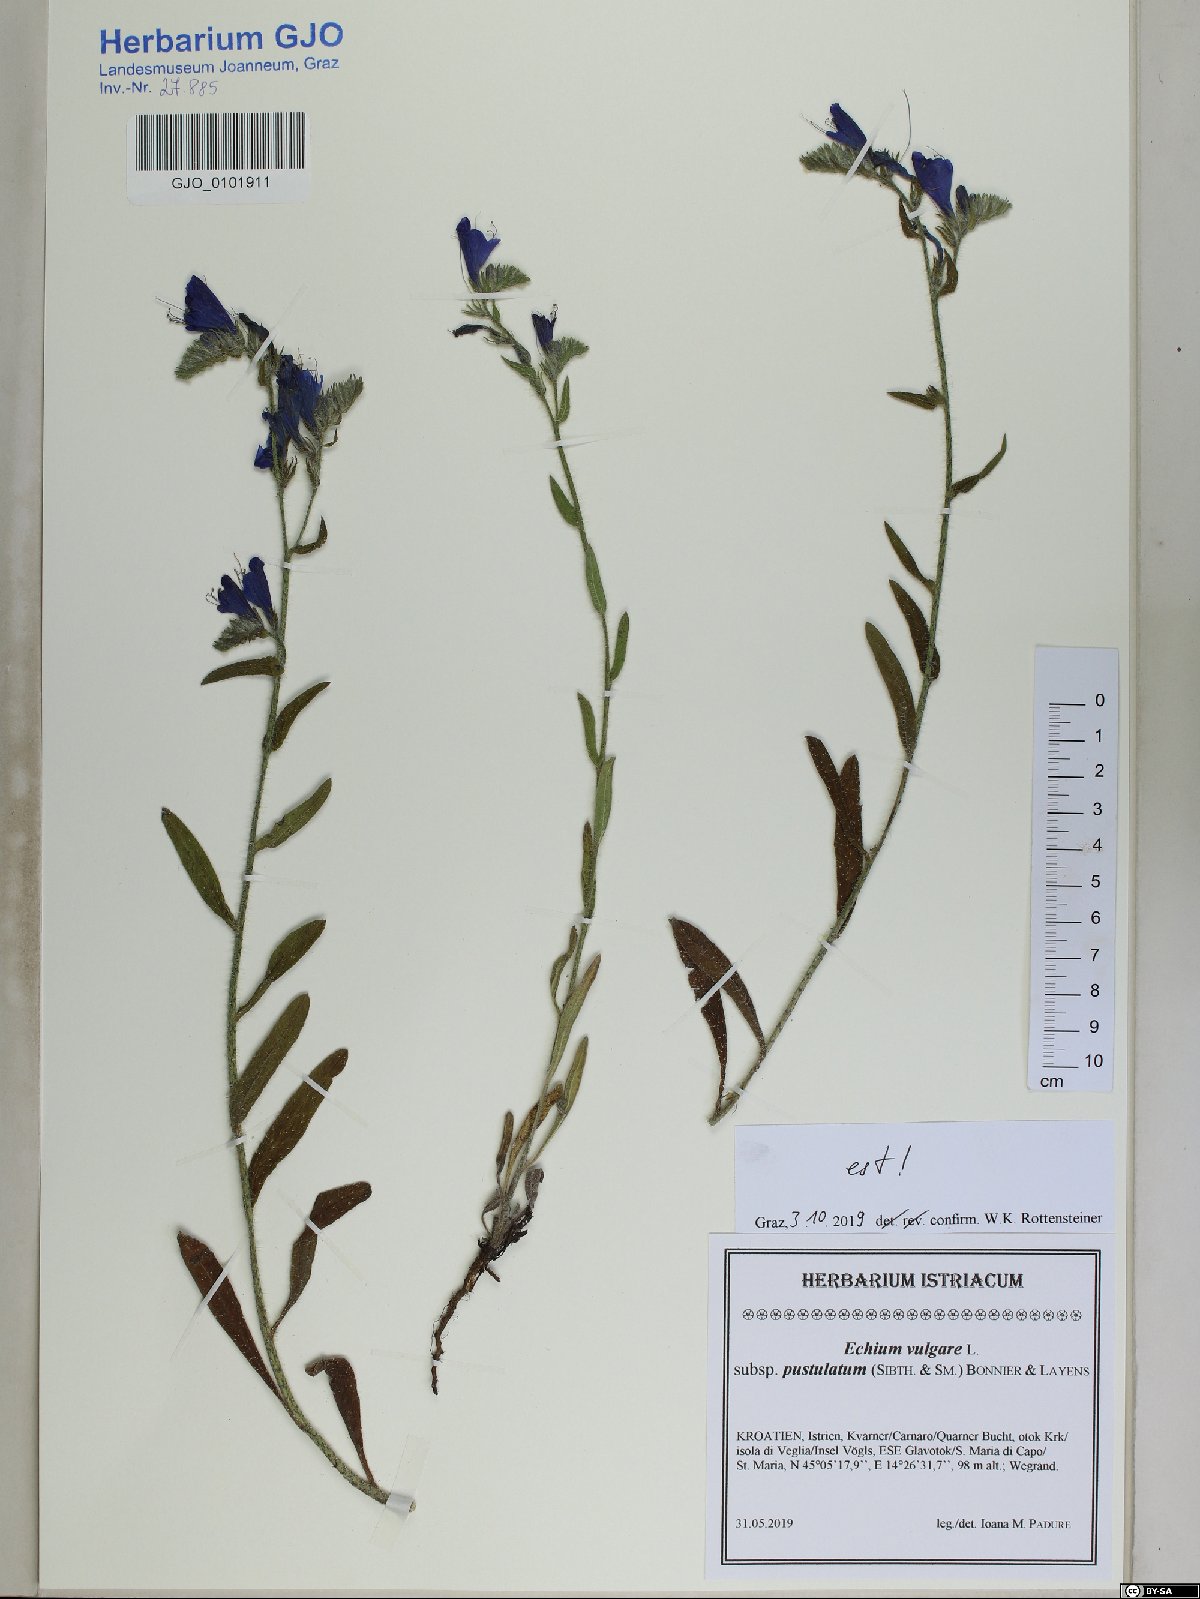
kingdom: Plantae
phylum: Tracheophyta
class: Magnoliopsida
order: Boraginales
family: Boraginaceae
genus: Echium
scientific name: Echium vulgare
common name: Common viper's bugloss
